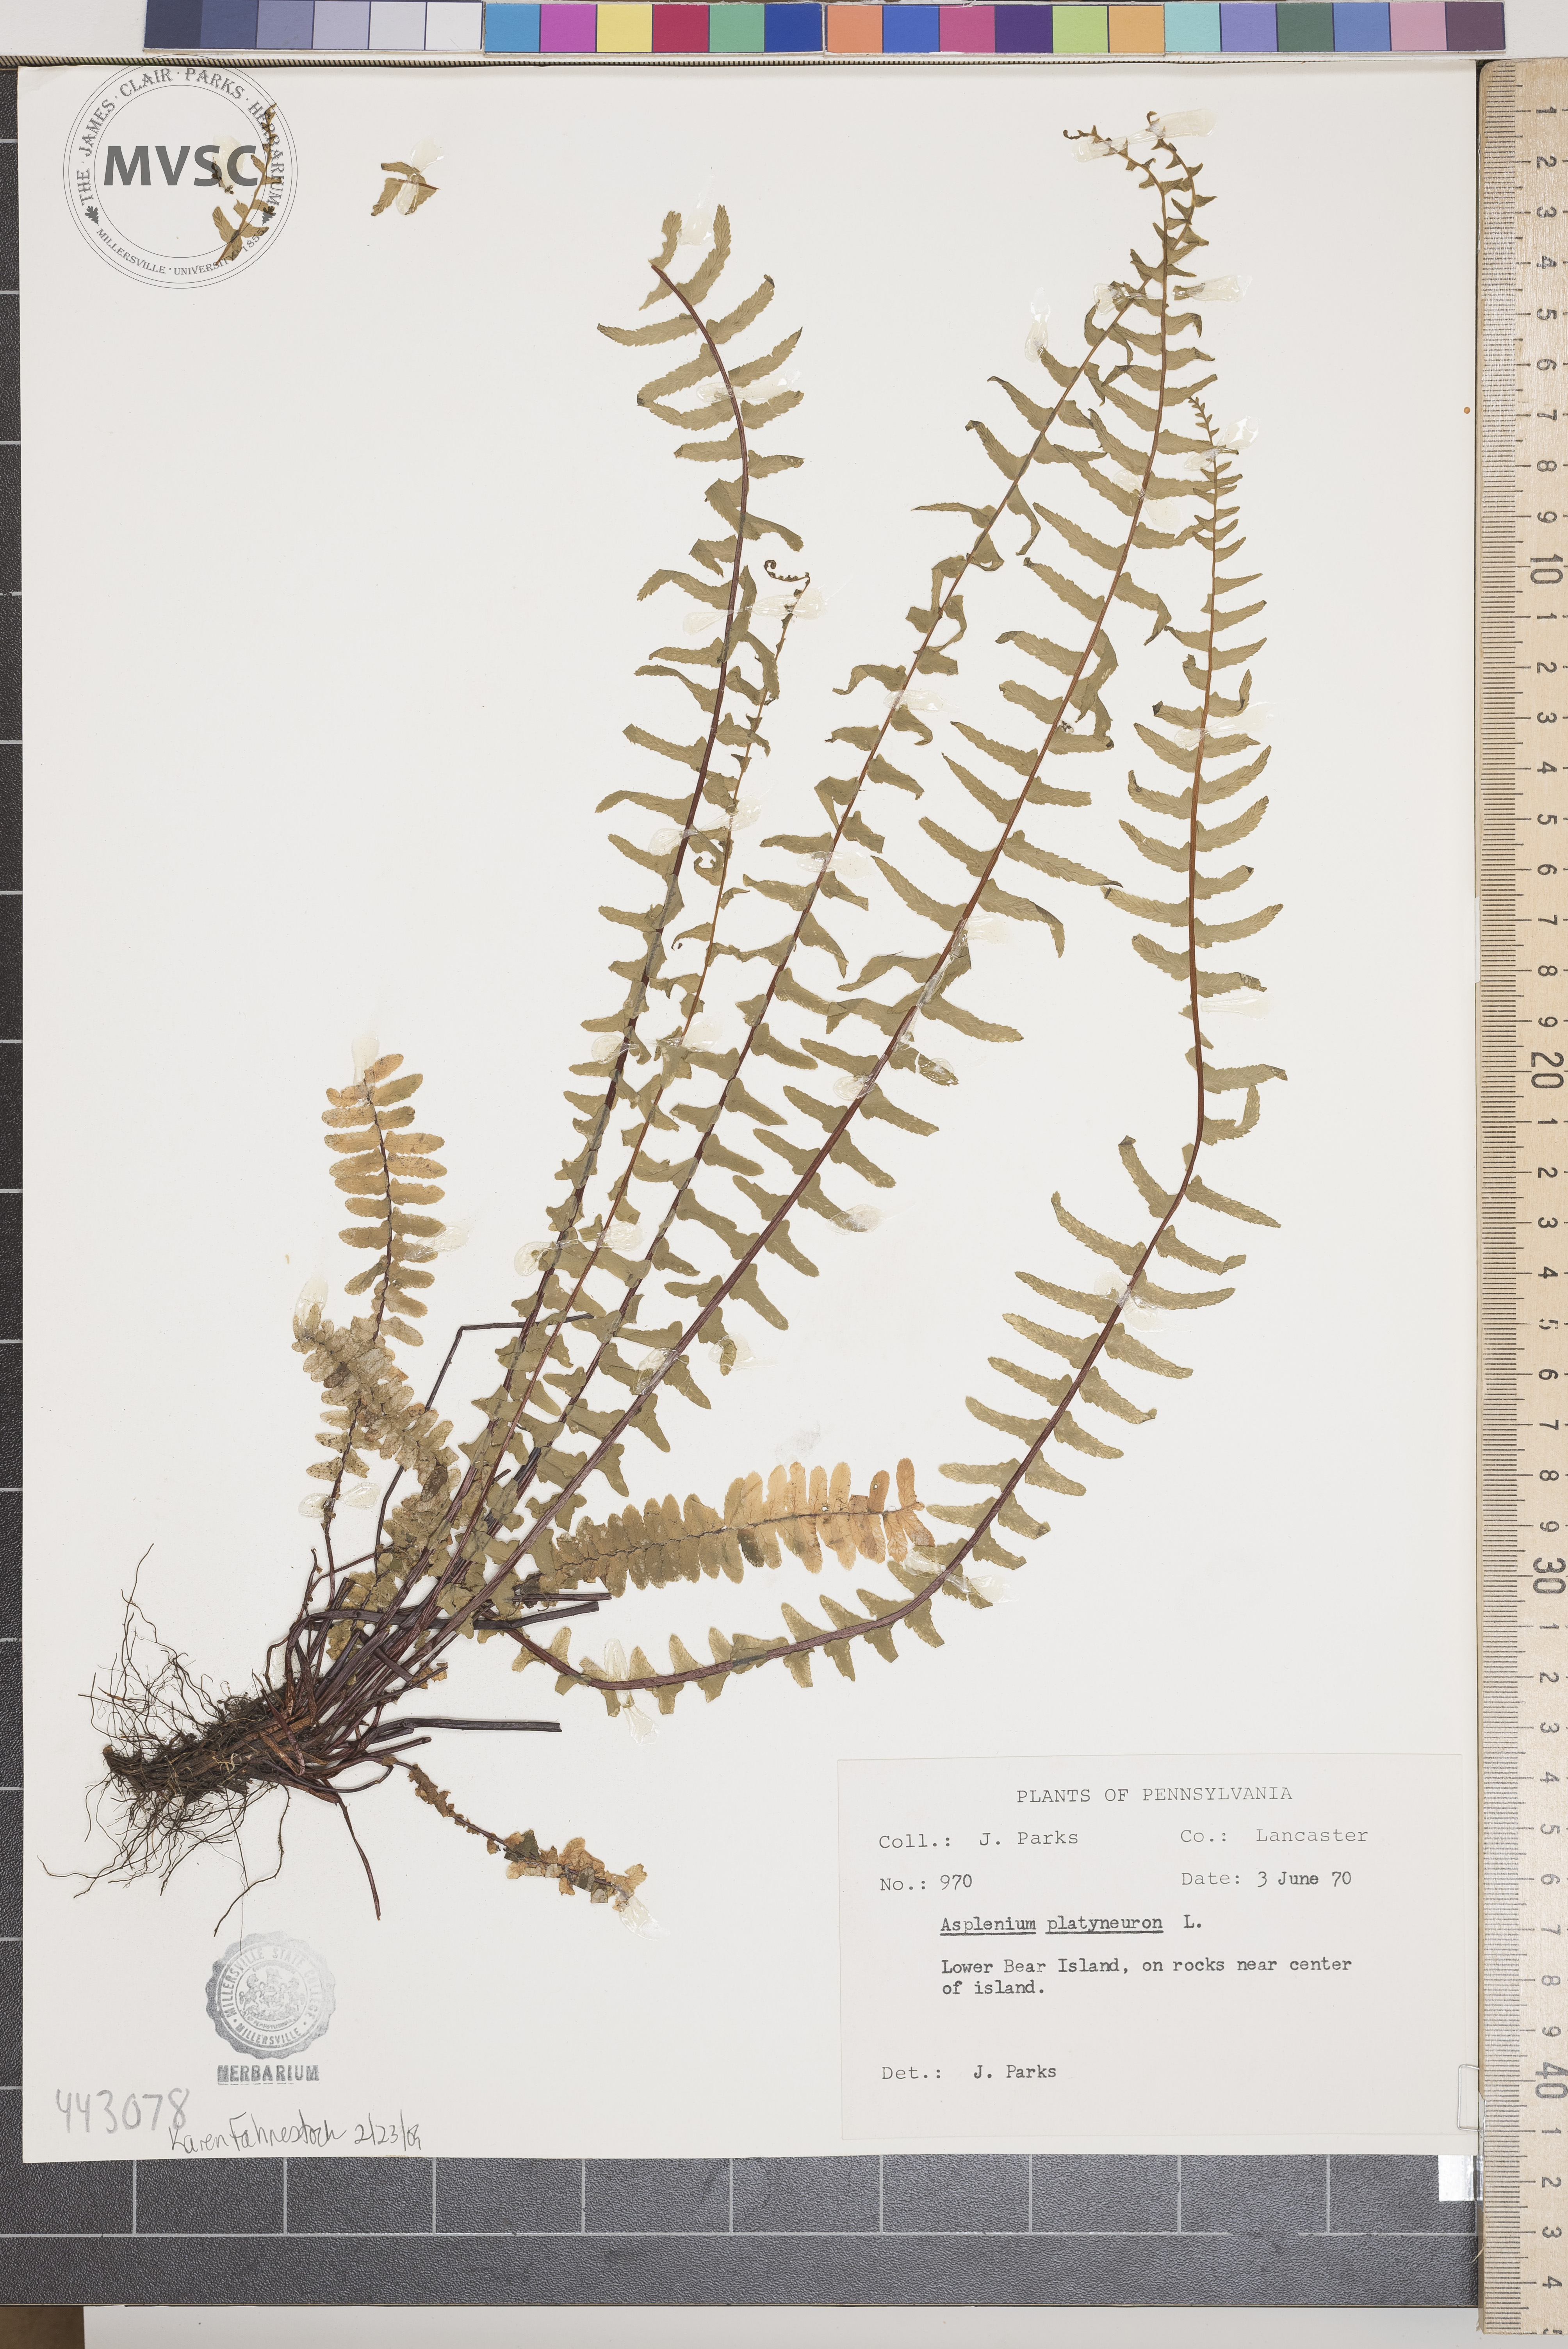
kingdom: Plantae
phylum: Tracheophyta
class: Polypodiopsida
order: Polypodiales
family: Aspleniaceae
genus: Asplenium
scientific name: Asplenium platyneuron
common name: Ebony spleenwort
